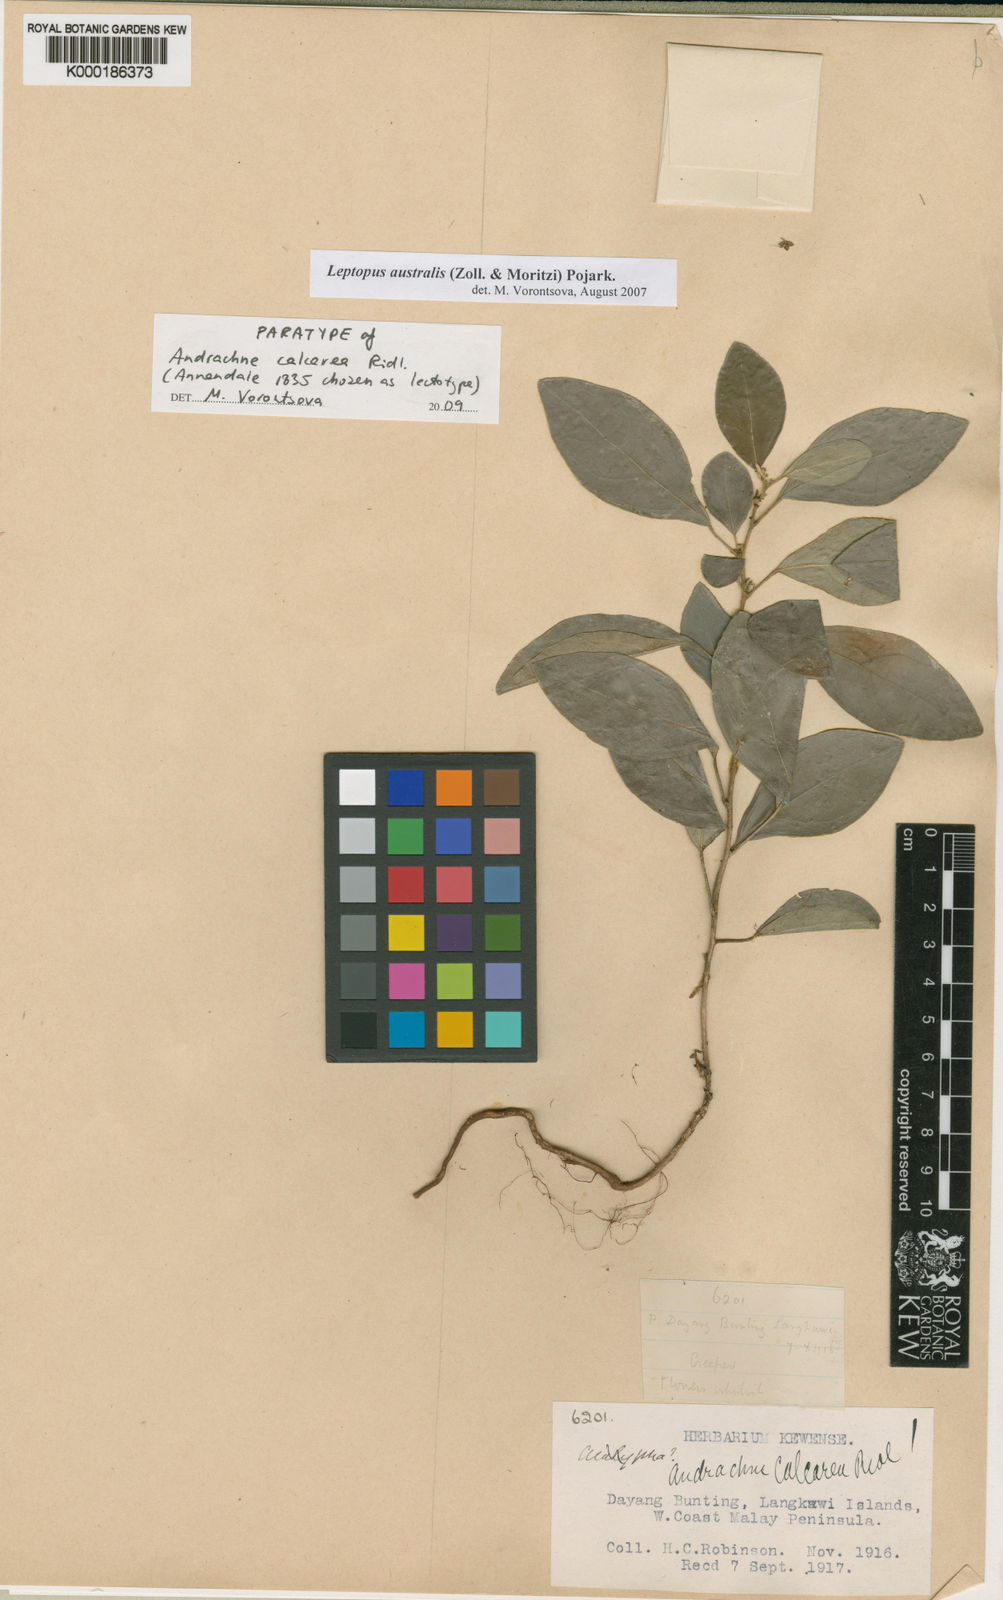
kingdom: Plantae
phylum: Tracheophyta
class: Magnoliopsida
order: Malpighiales
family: Phyllanthaceae
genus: Leptopus
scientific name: Leptopus australis
